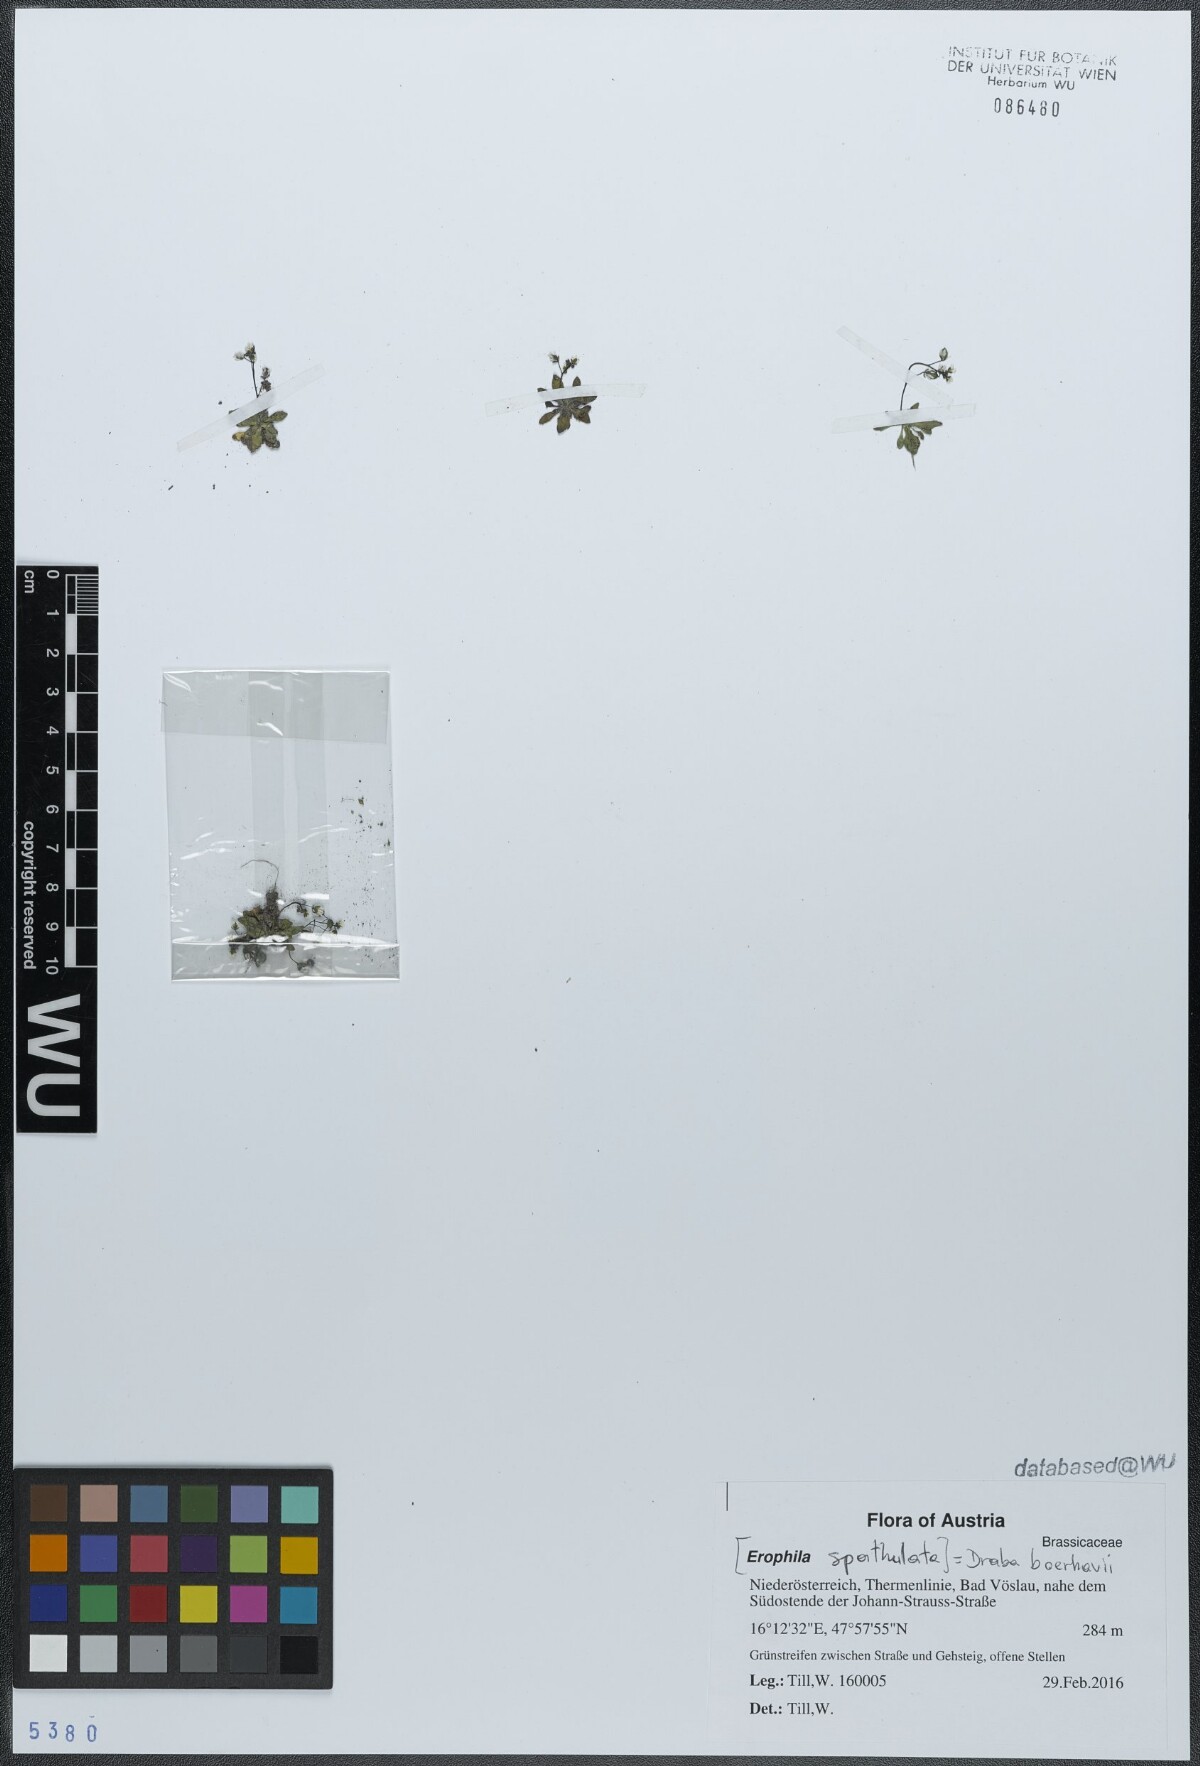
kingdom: Plantae
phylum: Tracheophyta
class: Magnoliopsida
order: Brassicales
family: Brassicaceae
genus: Draba
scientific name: Draba verna
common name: Spring draba
